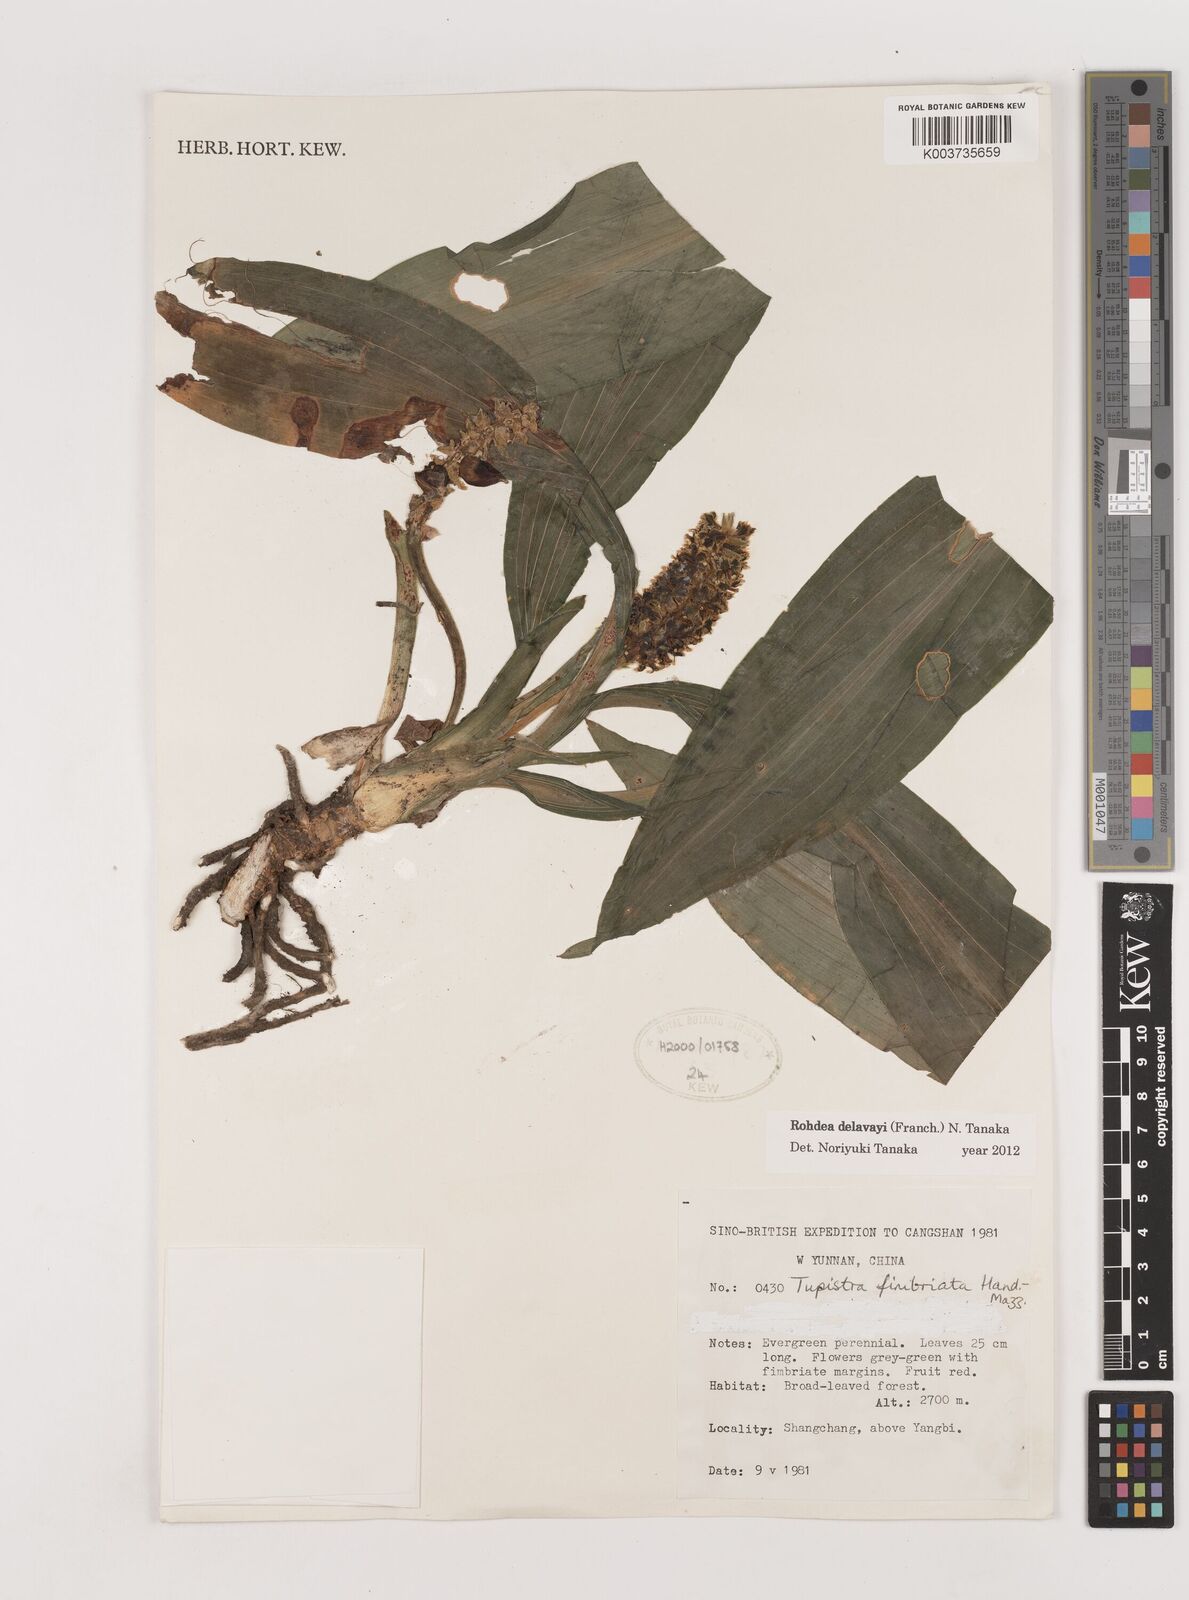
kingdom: Plantae
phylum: Tracheophyta
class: Liliopsida
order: Asparagales
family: Asparagaceae
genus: Rohdea
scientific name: Rohdea delavayi
